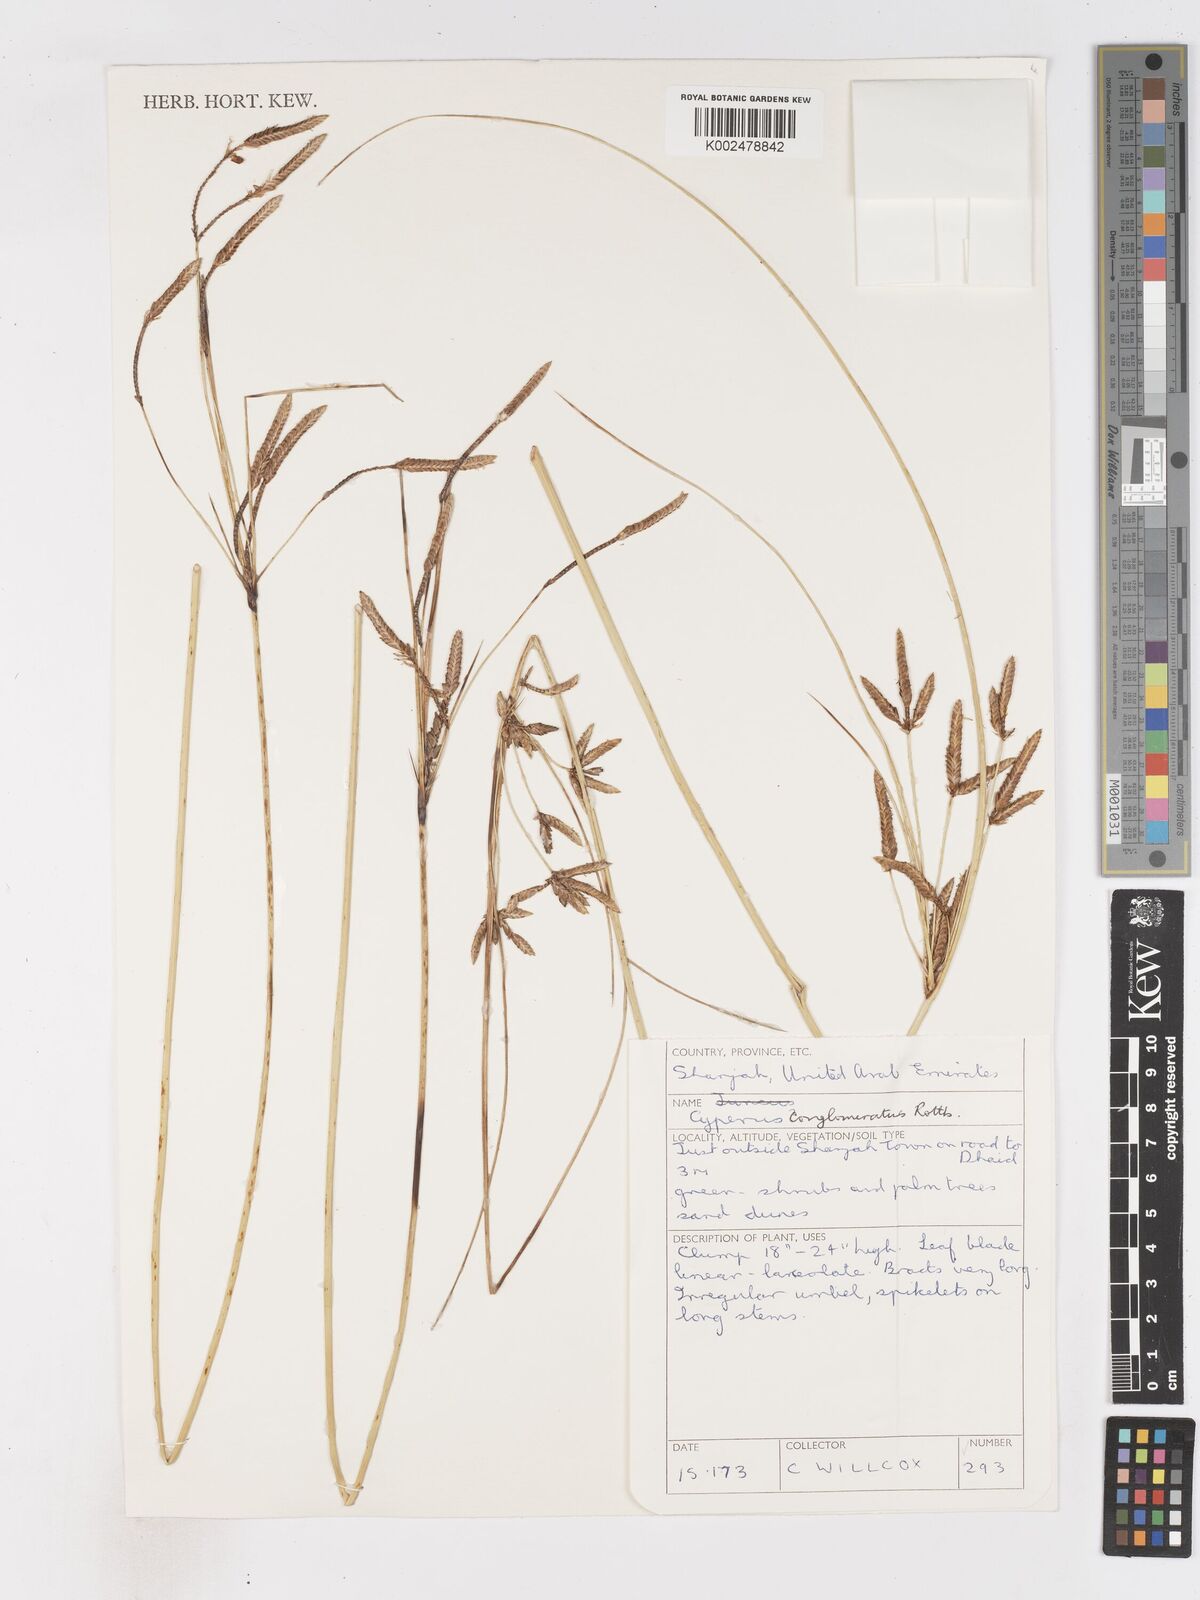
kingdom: Plantae
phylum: Tracheophyta
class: Liliopsida
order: Poales
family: Cyperaceae
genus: Cyperus
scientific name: Cyperus aucheri
